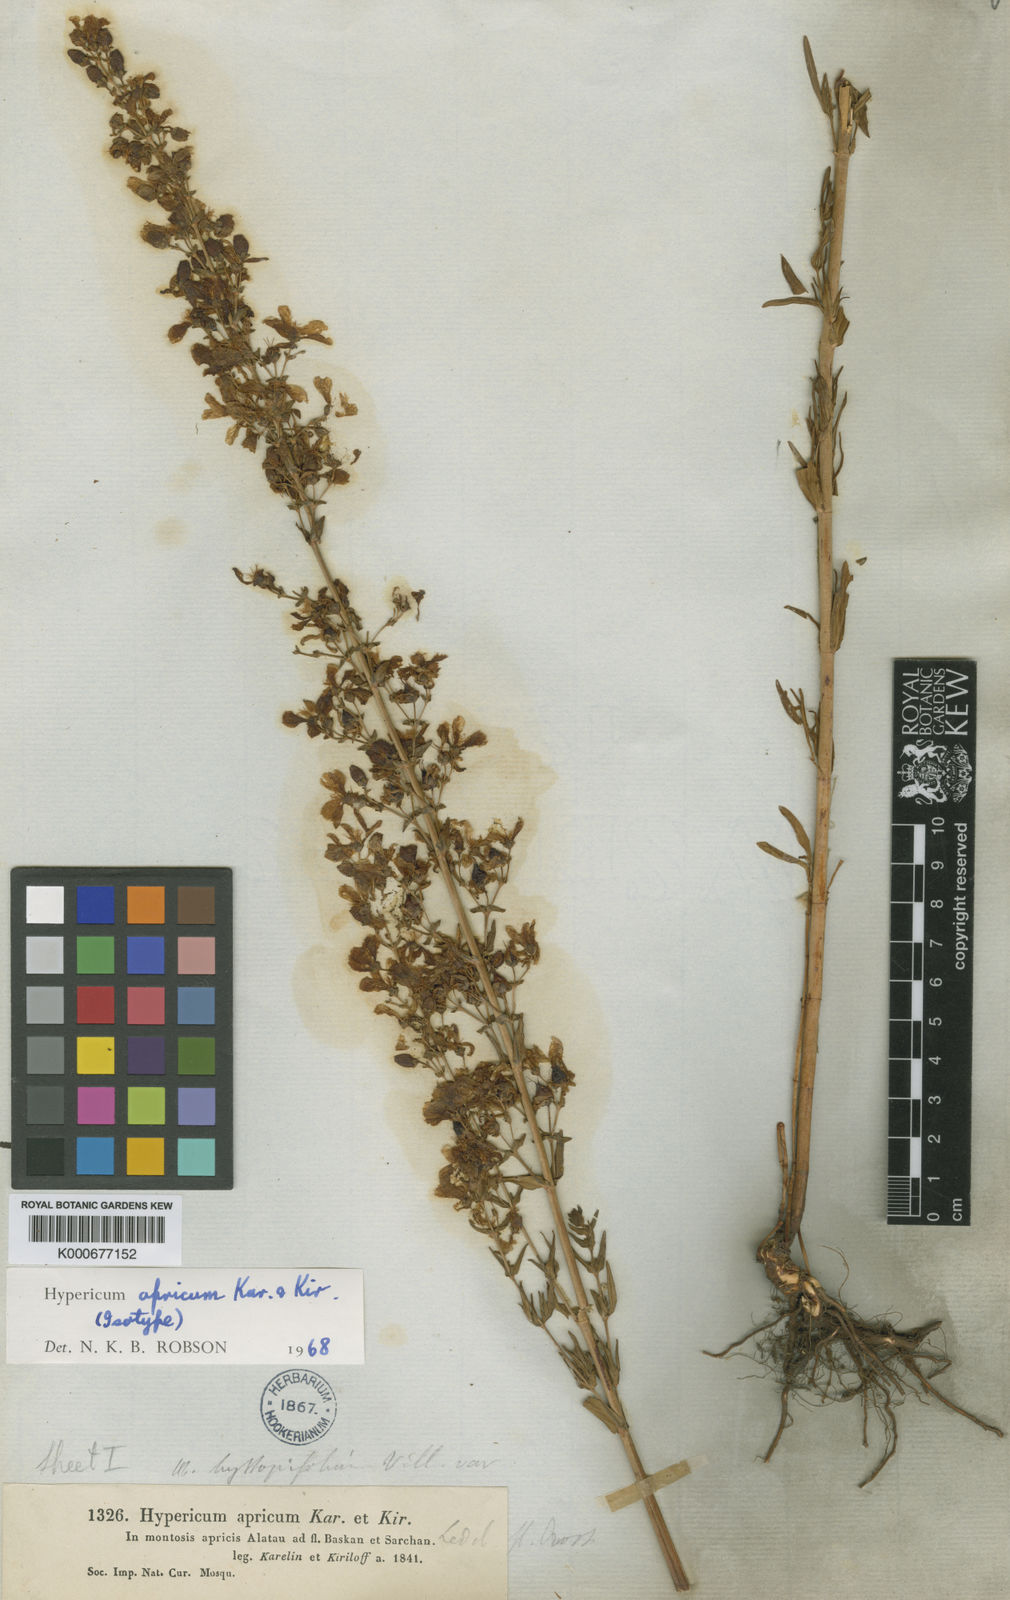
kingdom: Plantae
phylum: Tracheophyta
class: Magnoliopsida
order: Malpighiales
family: Hypericaceae
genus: Hypericum
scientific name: Hypericum apricum
